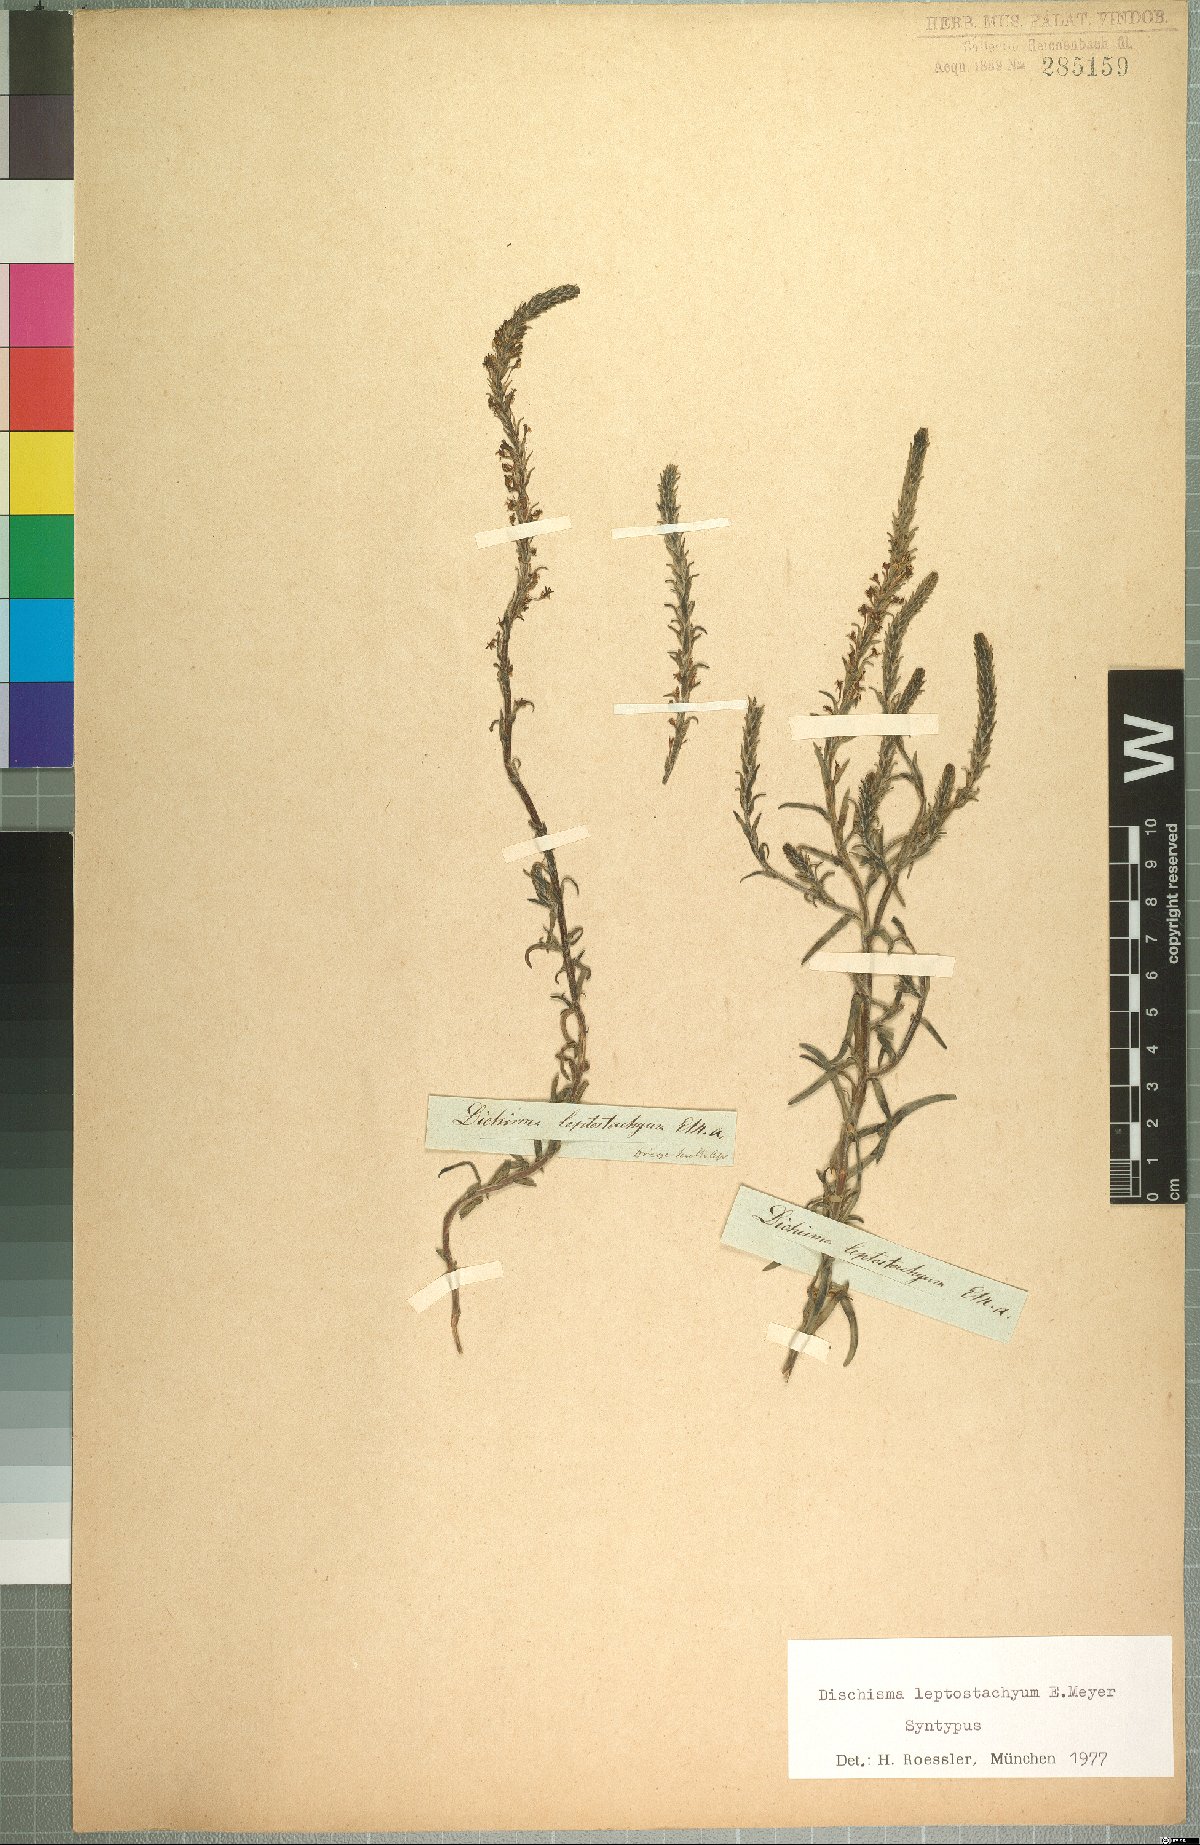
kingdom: Plantae
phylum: Tracheophyta
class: Magnoliopsida
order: Lamiales
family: Scrophulariaceae
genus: Dischisma
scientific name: Dischisma leptostachyum
